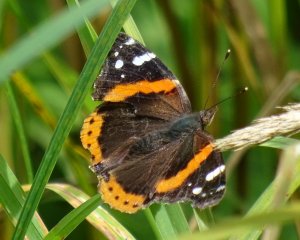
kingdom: Animalia
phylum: Arthropoda
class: Insecta
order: Lepidoptera
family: Nymphalidae
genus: Vanessa
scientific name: Vanessa atalanta
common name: Red Admiral
